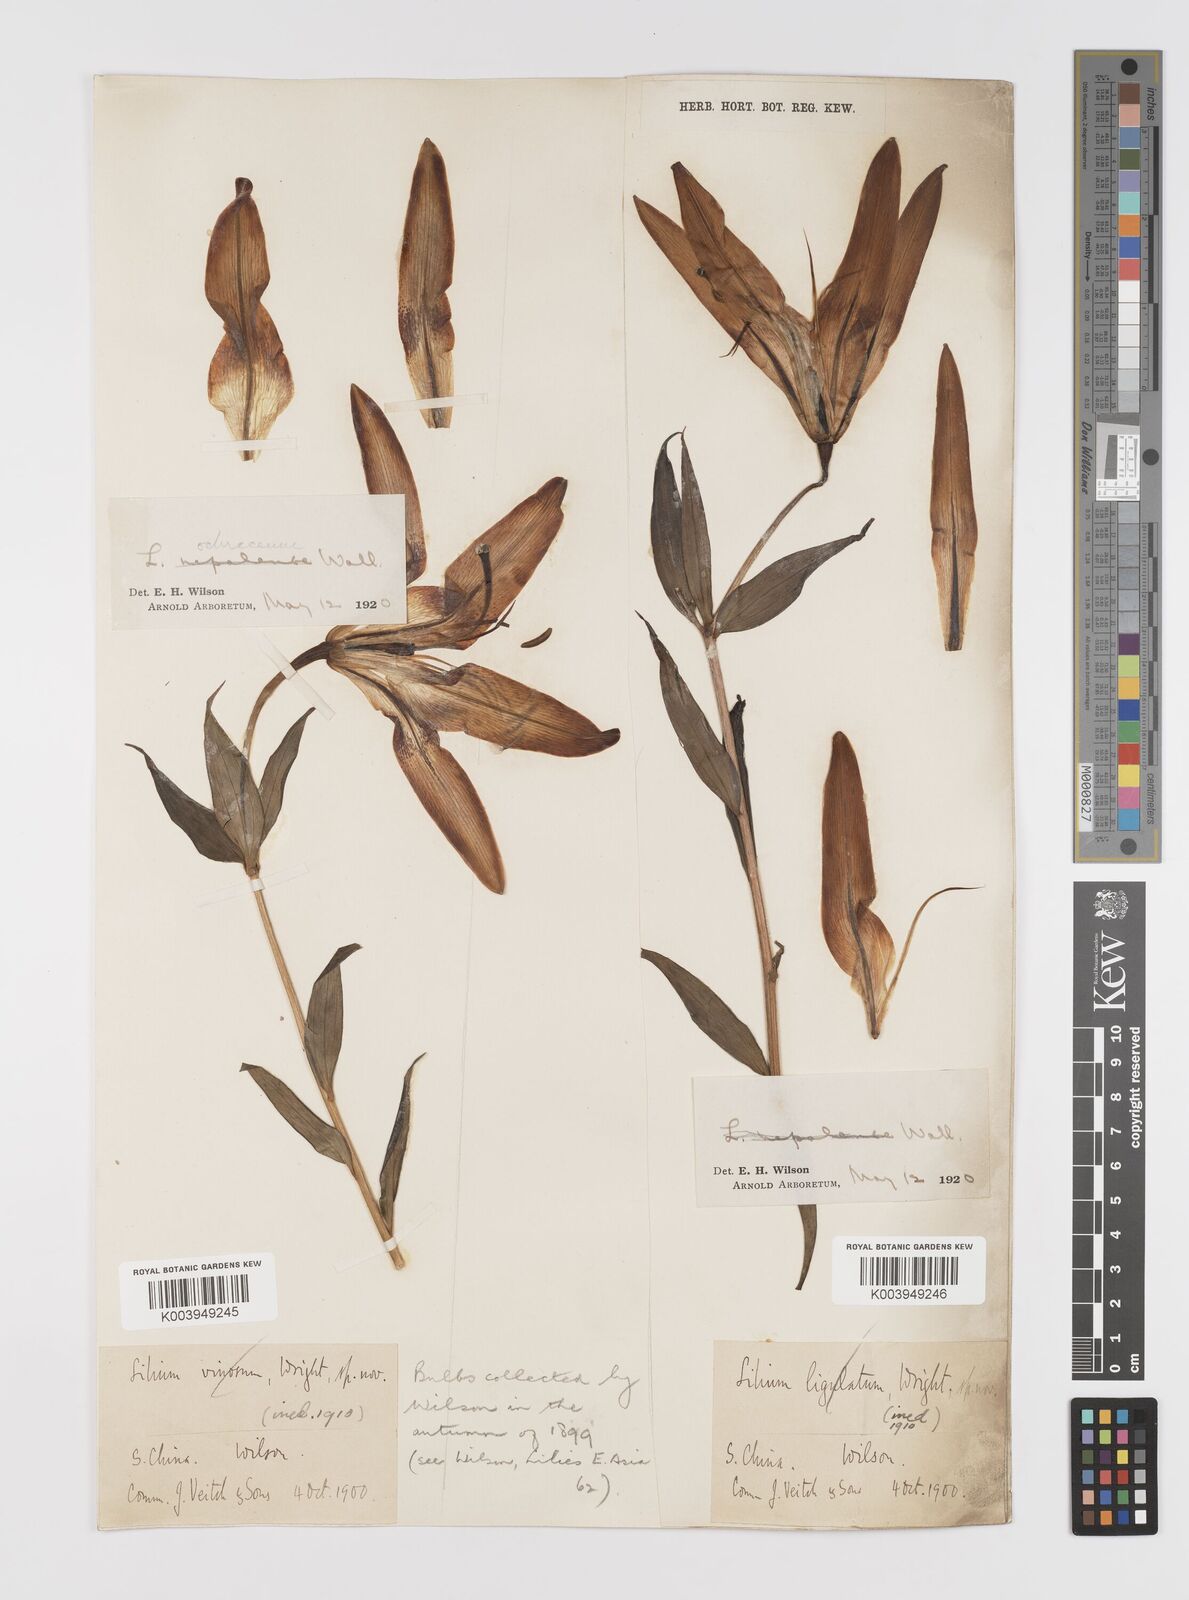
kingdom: Plantae
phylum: Tracheophyta
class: Liliopsida
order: Liliales
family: Liliaceae
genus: Lilium
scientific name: Lilium primulinum
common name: Ochre lily
